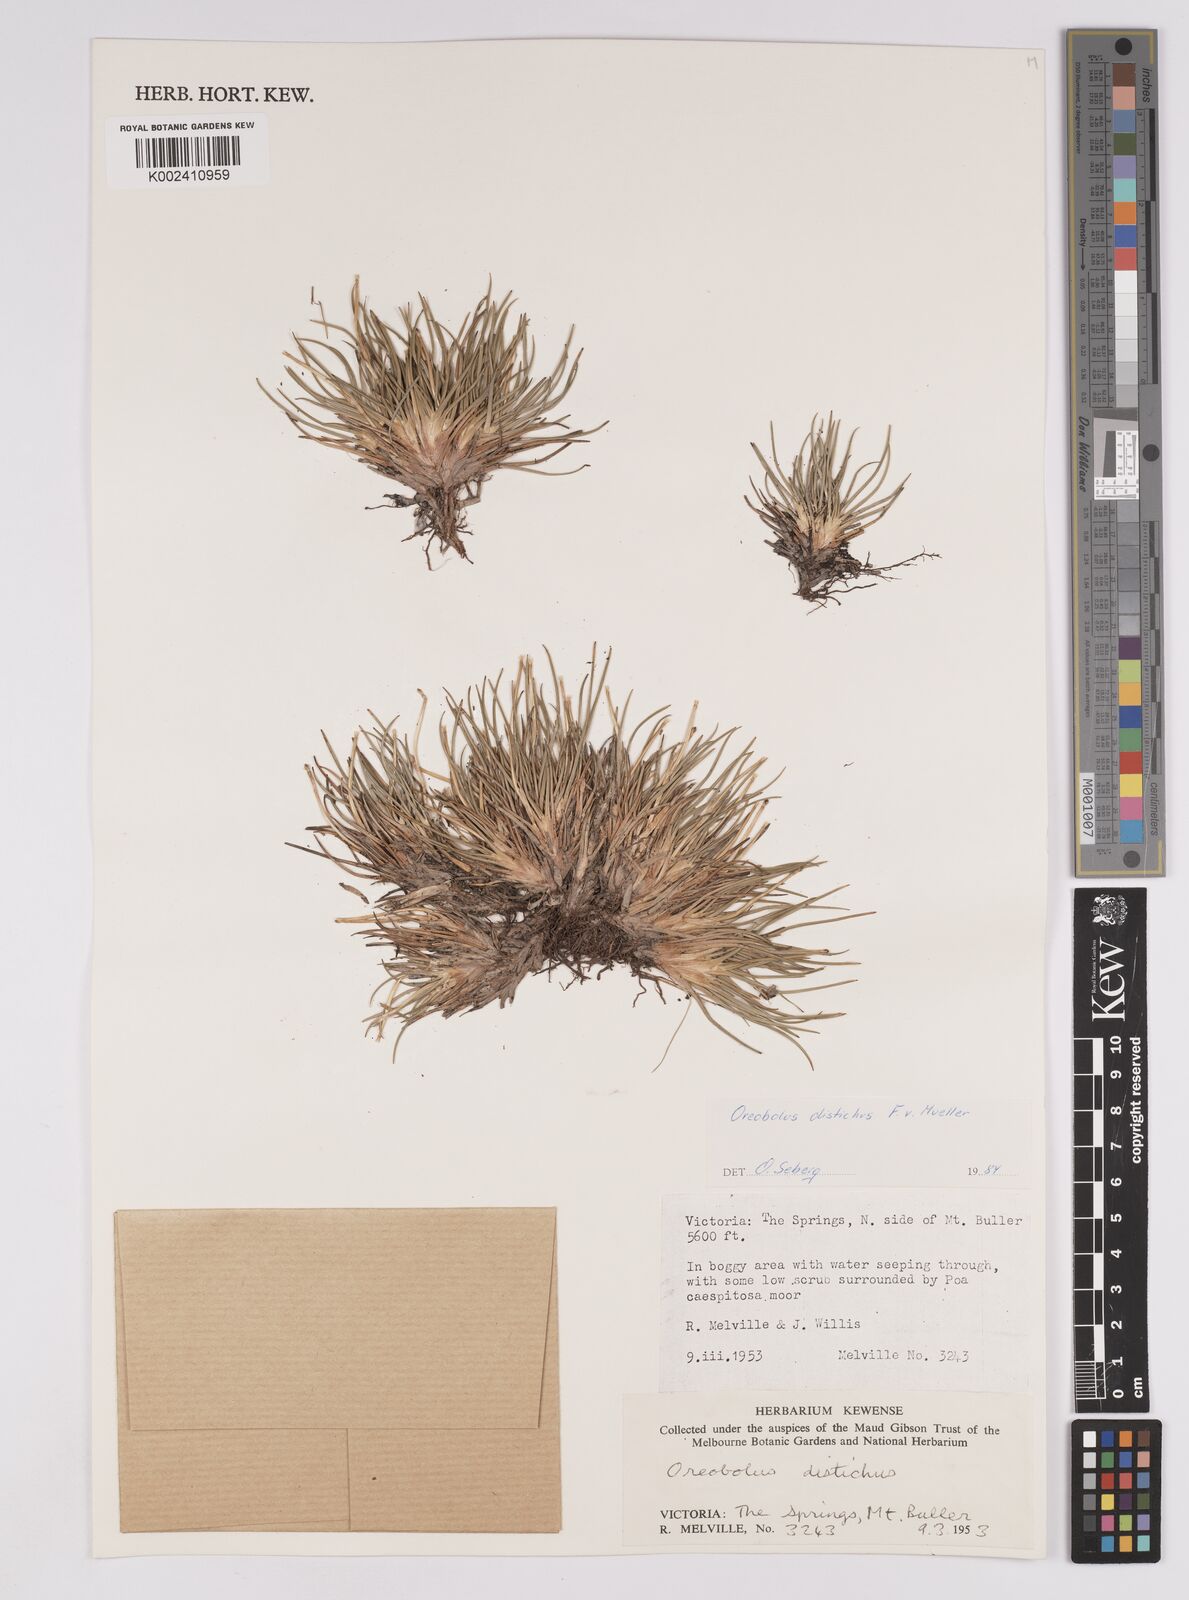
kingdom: Plantae
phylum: Tracheophyta
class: Liliopsida
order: Poales
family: Cyperaceae
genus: Oreobolus
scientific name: Oreobolus distichus
